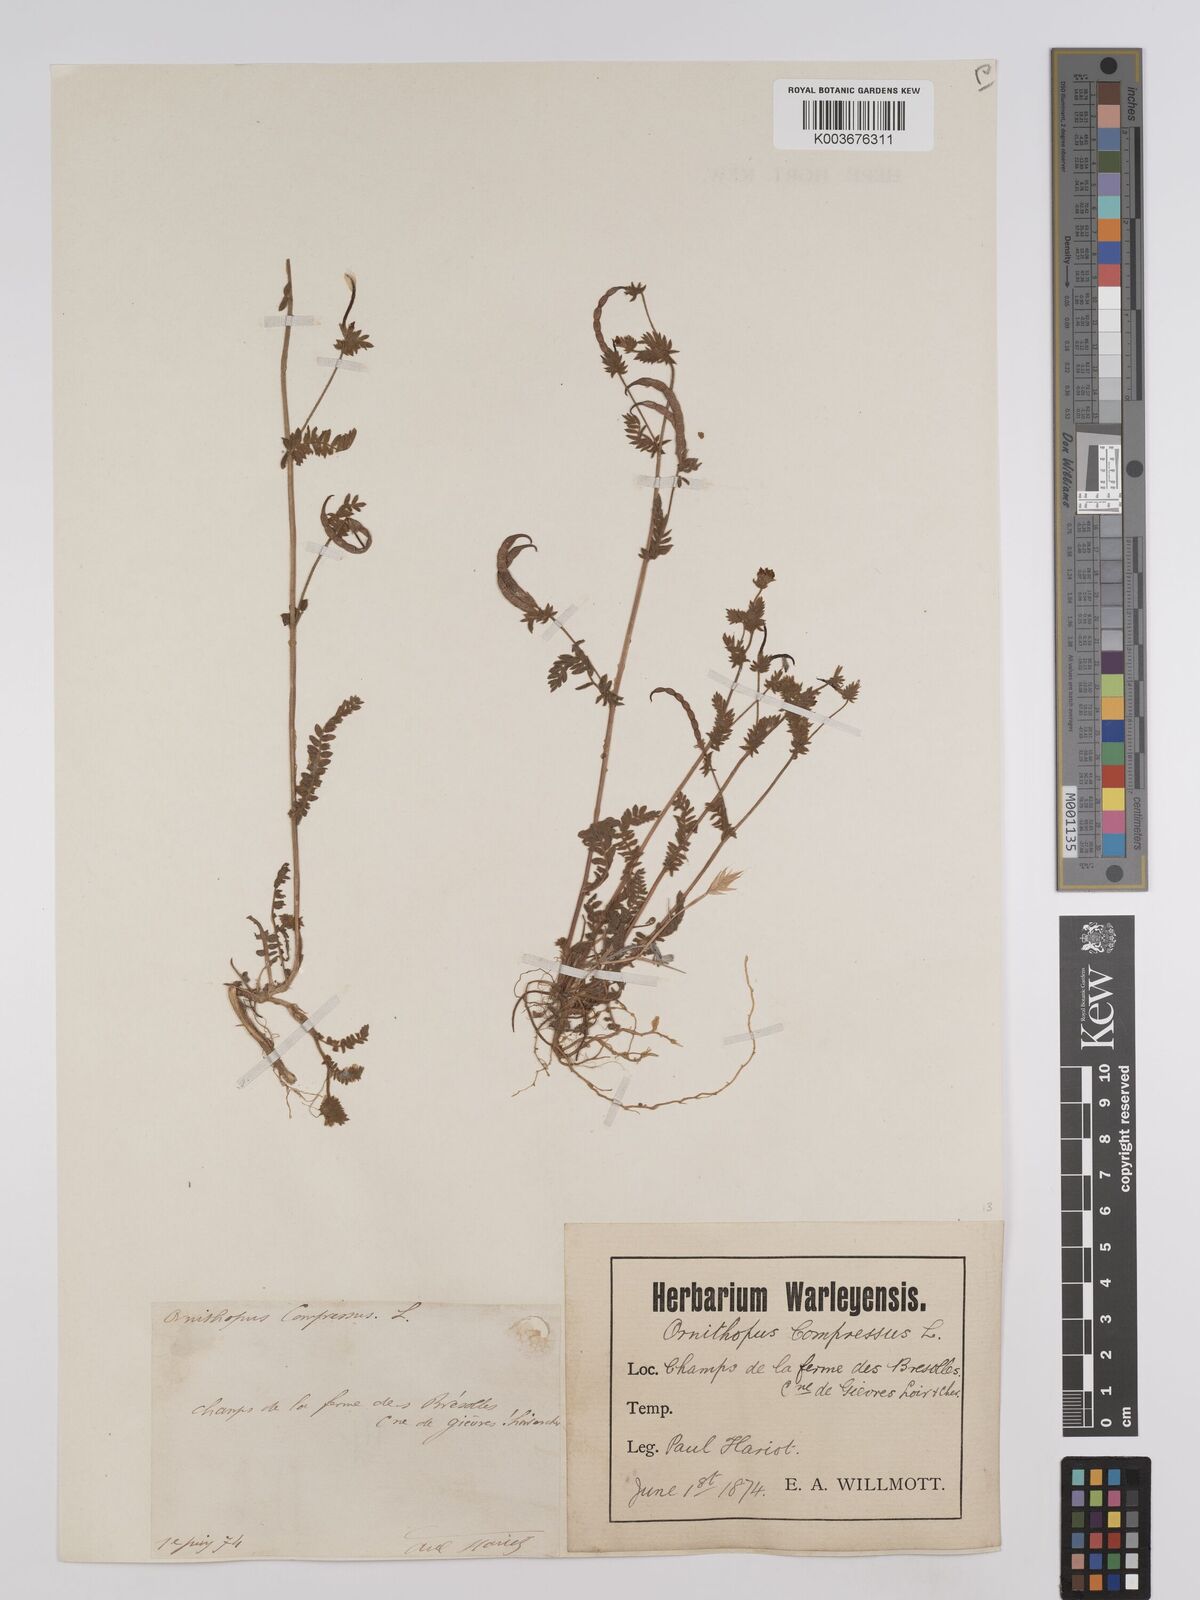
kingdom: Plantae
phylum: Tracheophyta
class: Magnoliopsida
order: Fabales
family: Fabaceae
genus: Ornithopus
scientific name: Ornithopus compressus
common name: Yellow serradella
